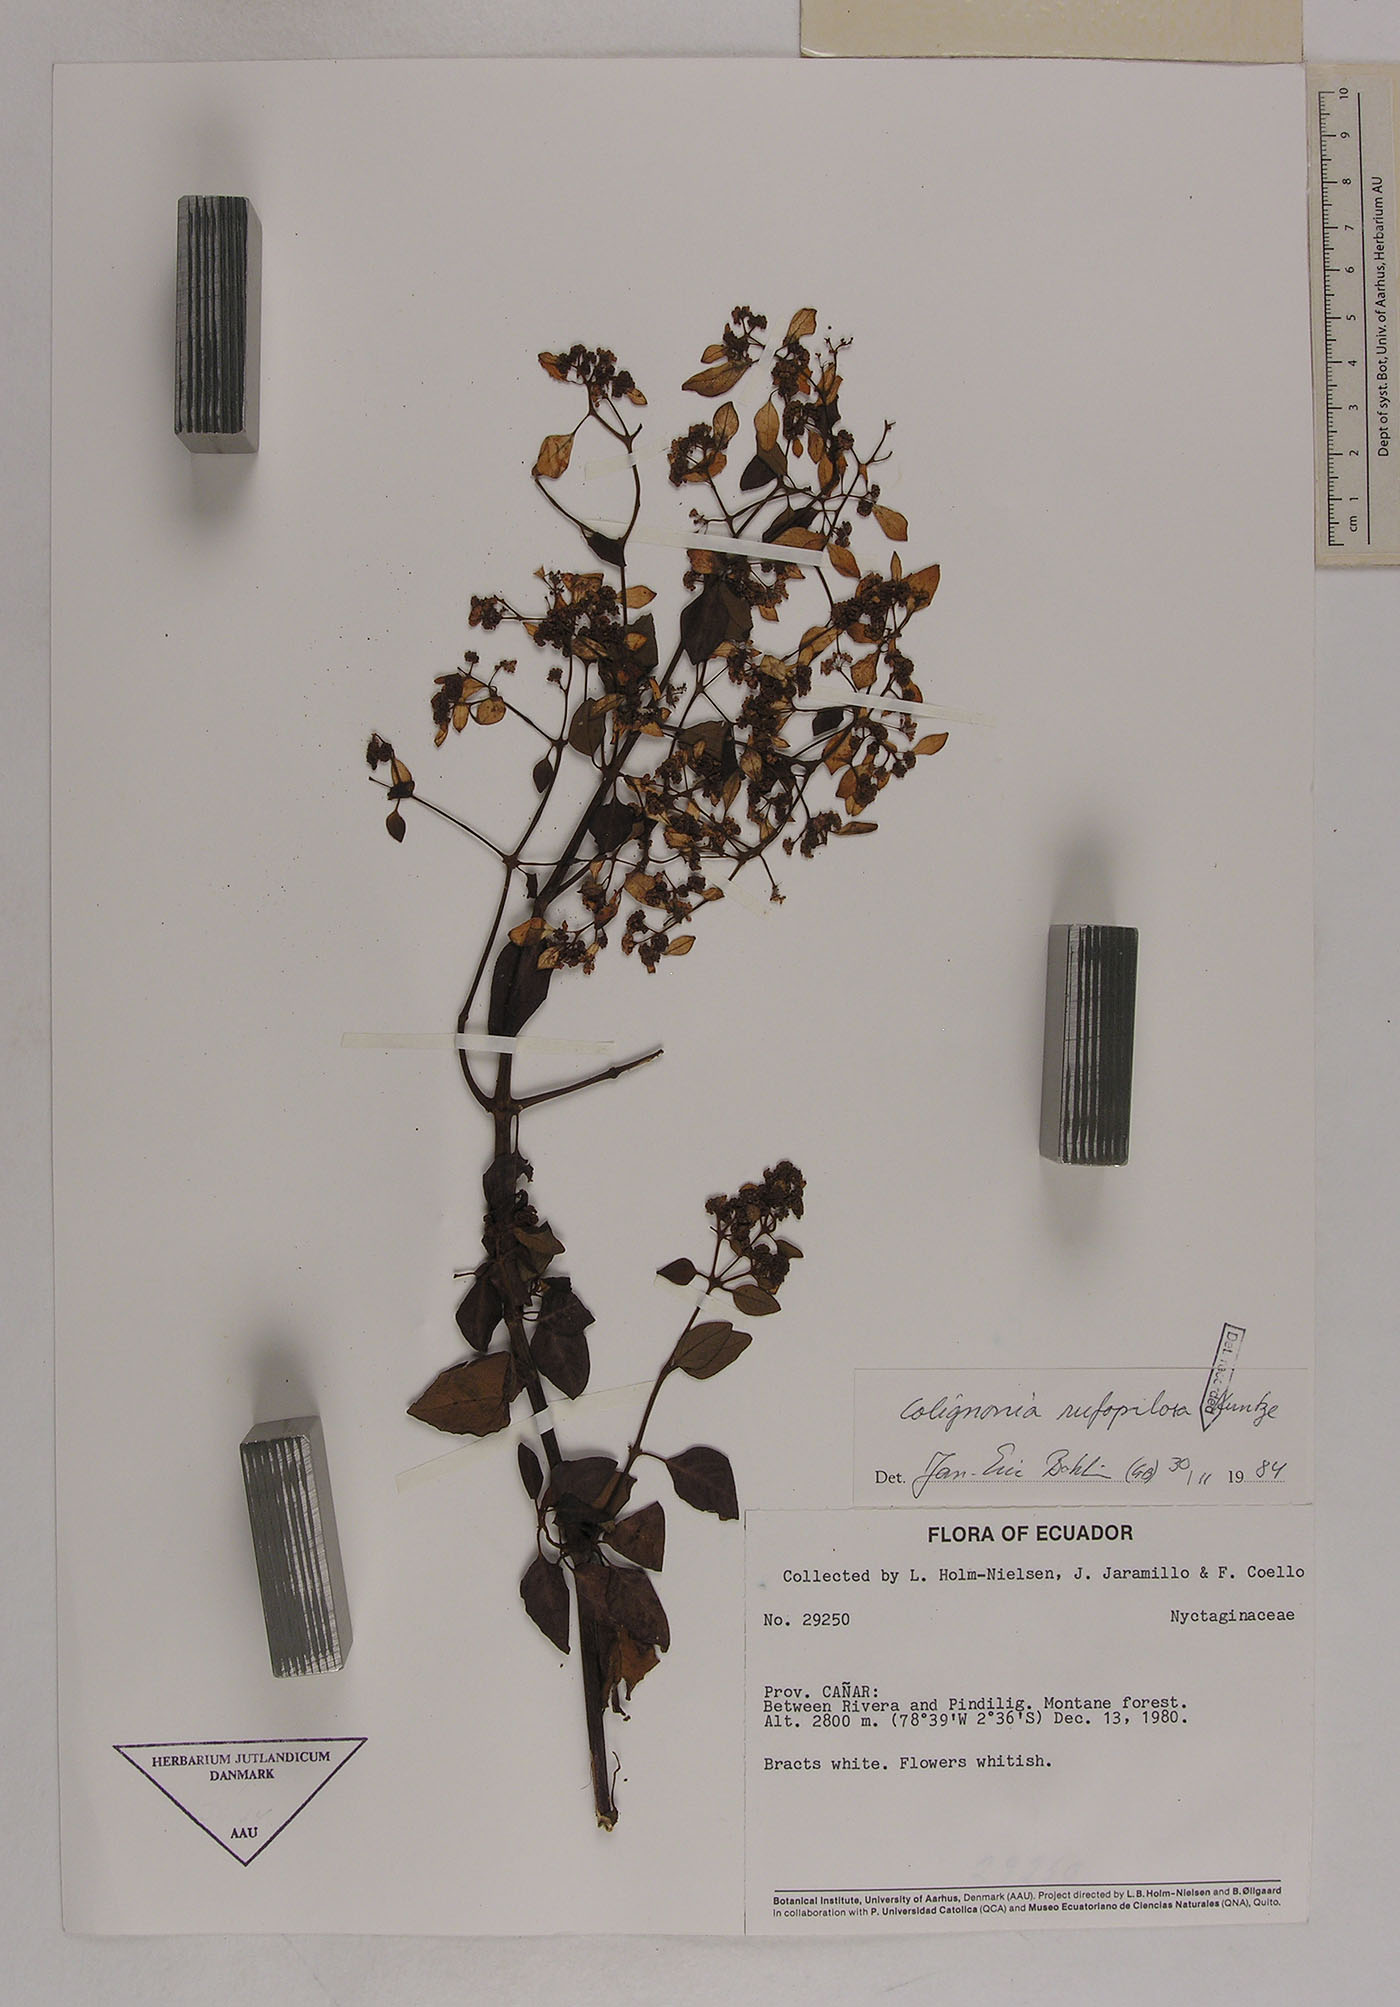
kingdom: Plantae
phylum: Tracheophyta
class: Magnoliopsida
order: Caryophyllales
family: Nyctaginaceae
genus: Colignonia
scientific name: Colignonia rufopilosa
